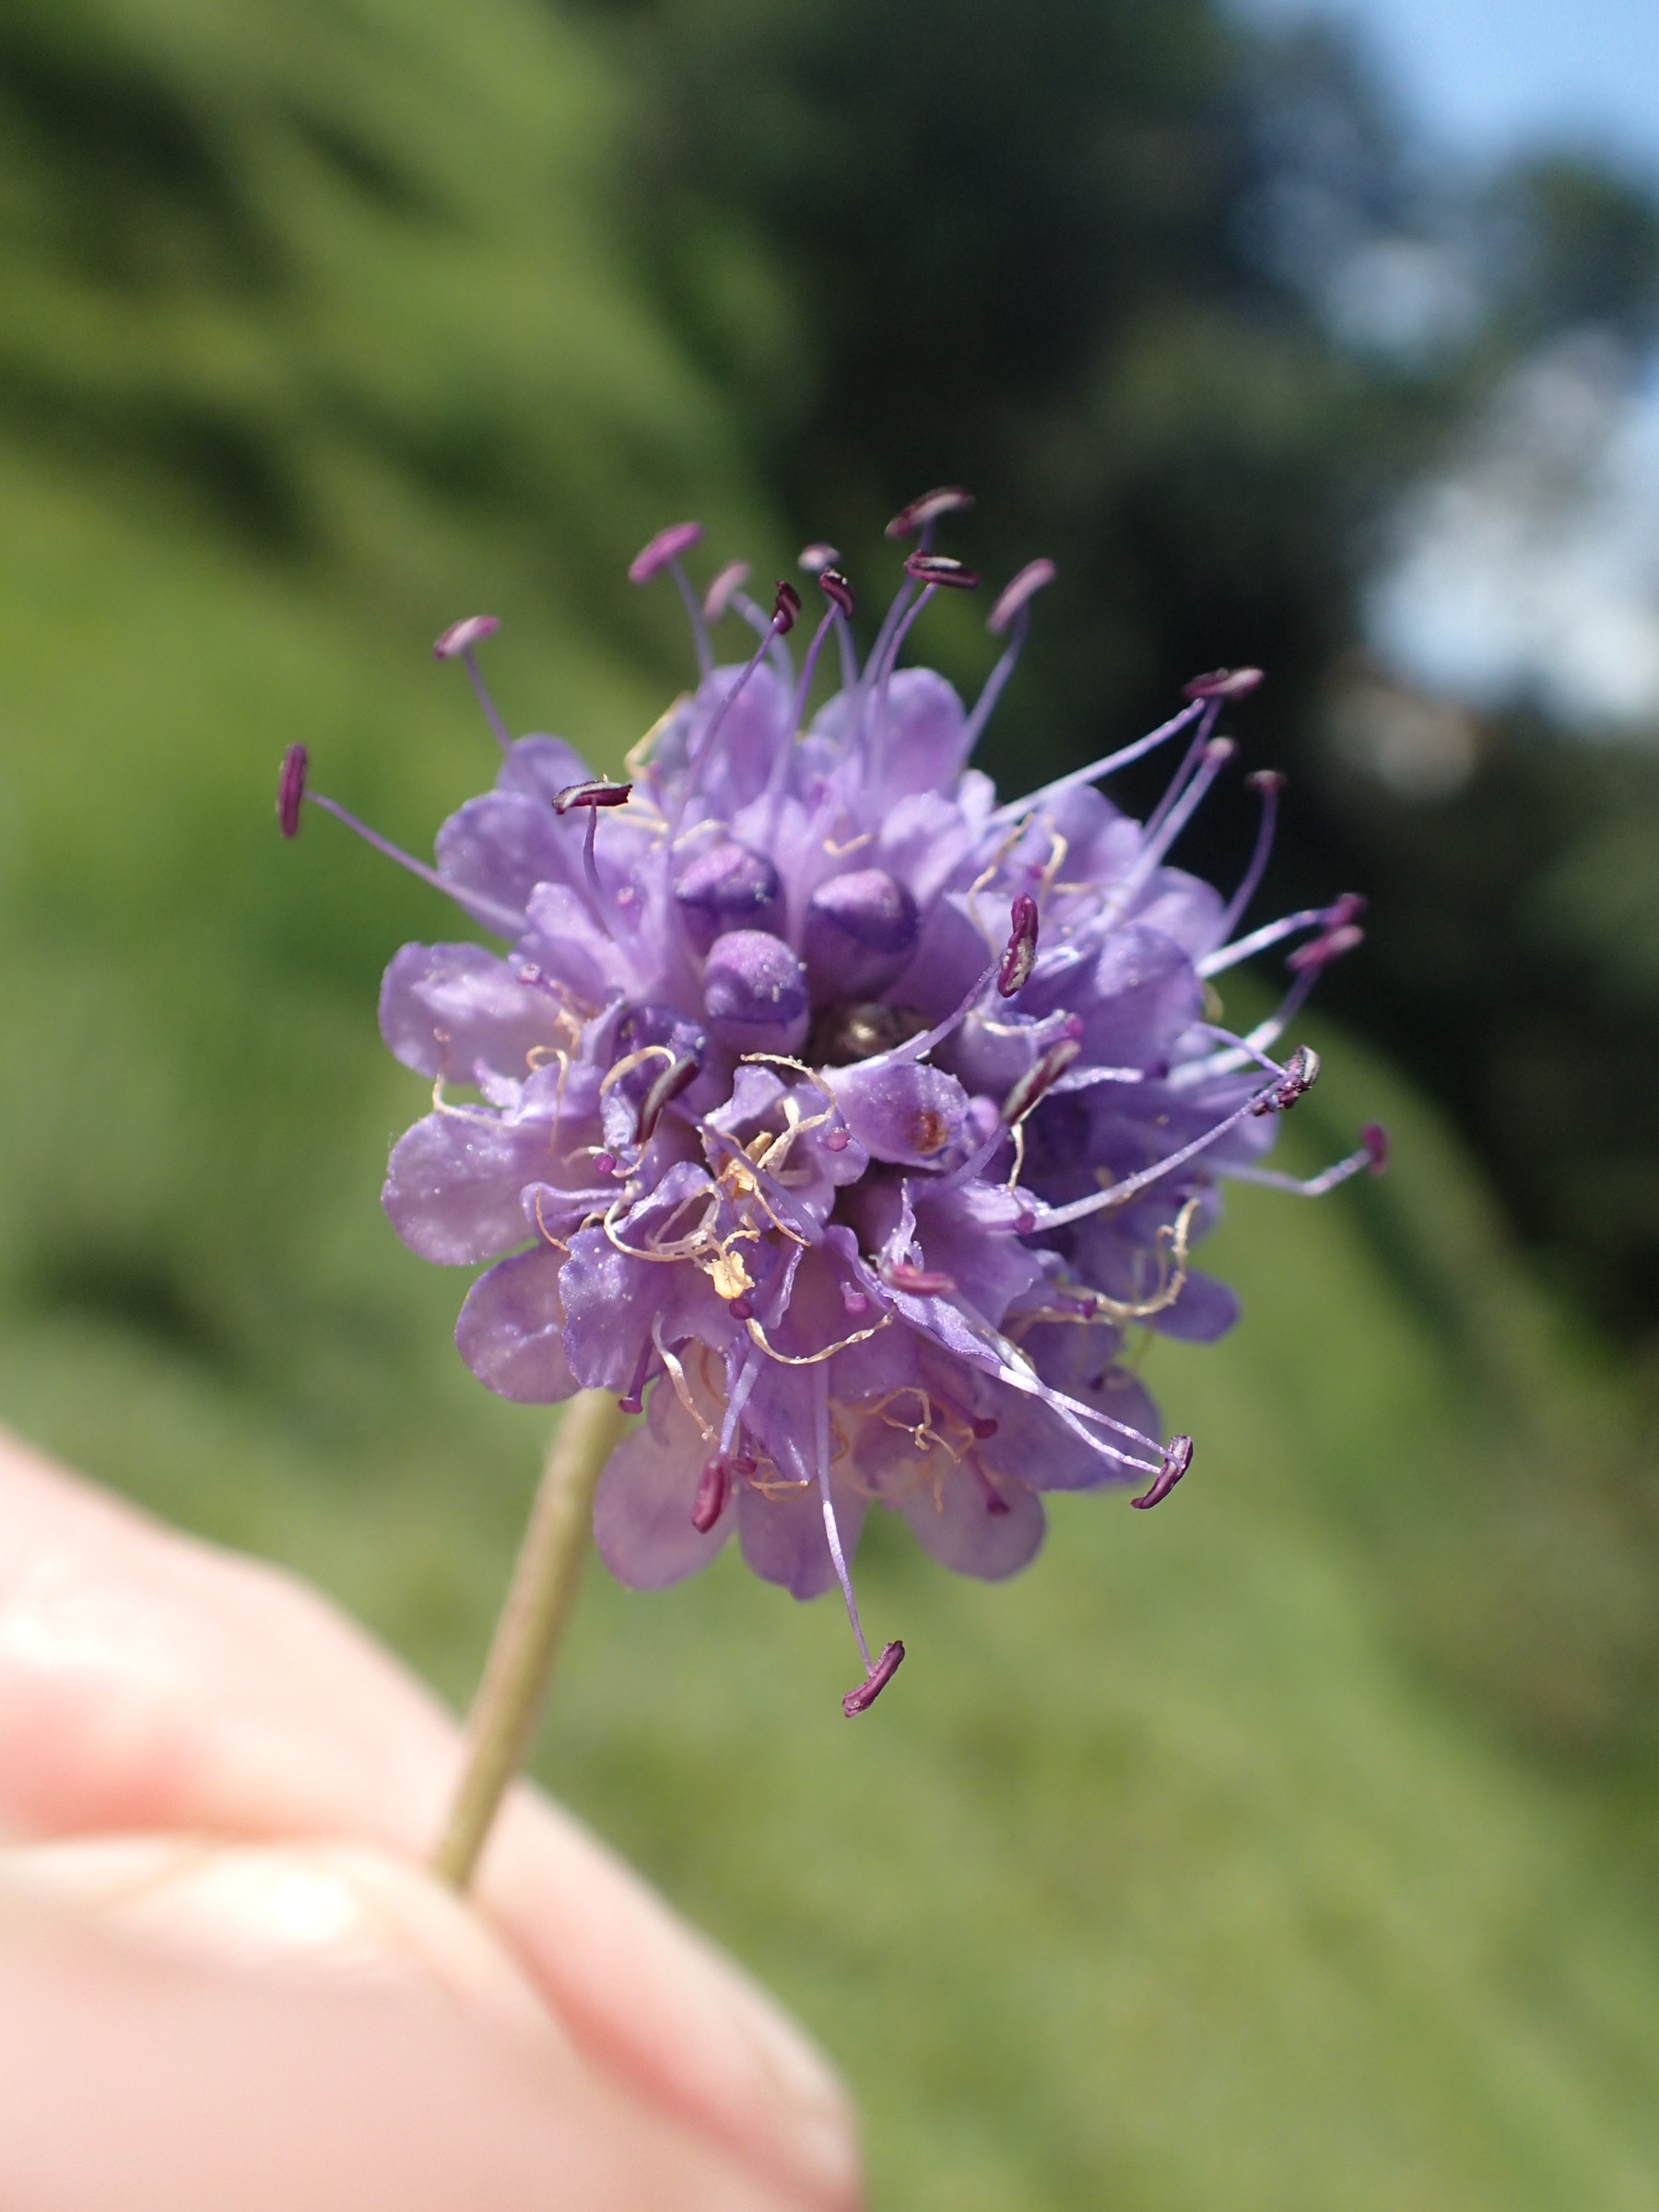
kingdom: Plantae
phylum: Tracheophyta
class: Magnoliopsida
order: Dipsacales
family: Caprifoliaceae
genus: Succisa
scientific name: Succisa pratensis
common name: Djævelsbid
